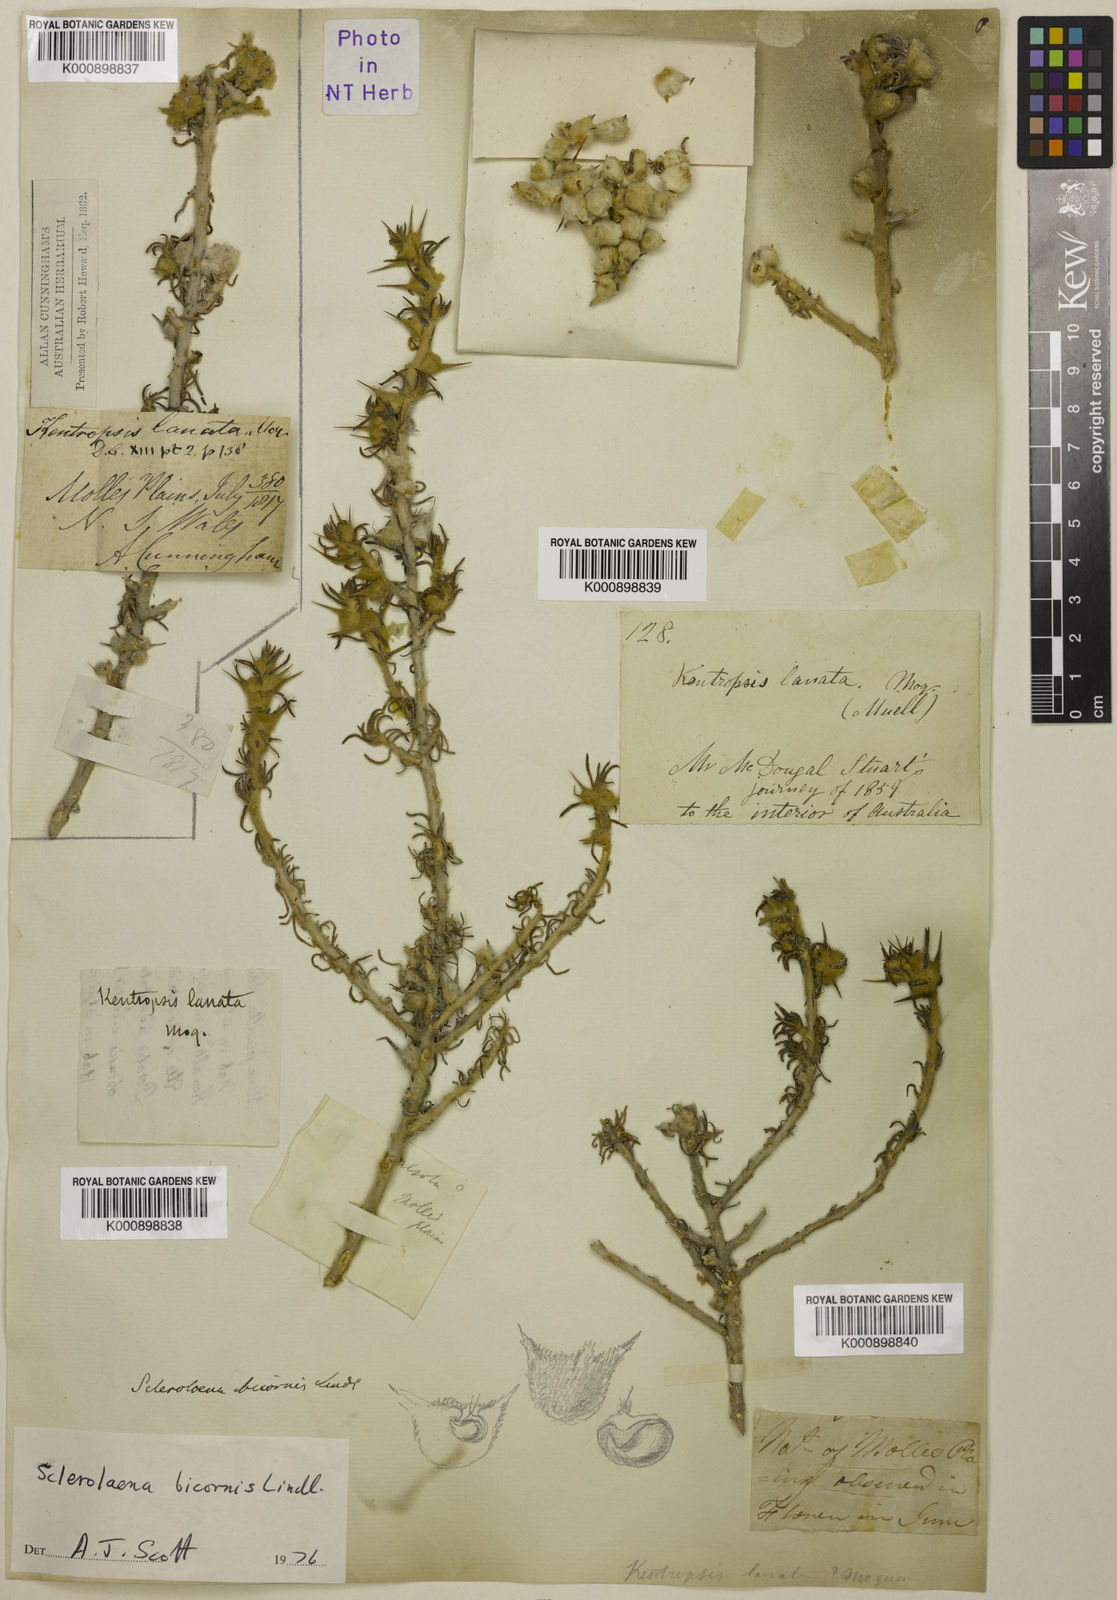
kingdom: Plantae
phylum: Tracheophyta
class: Magnoliopsida
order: Caryophyllales
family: Amaranthaceae
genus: Sclerolaena
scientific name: Sclerolaena bicornis
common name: Goatheadbur
